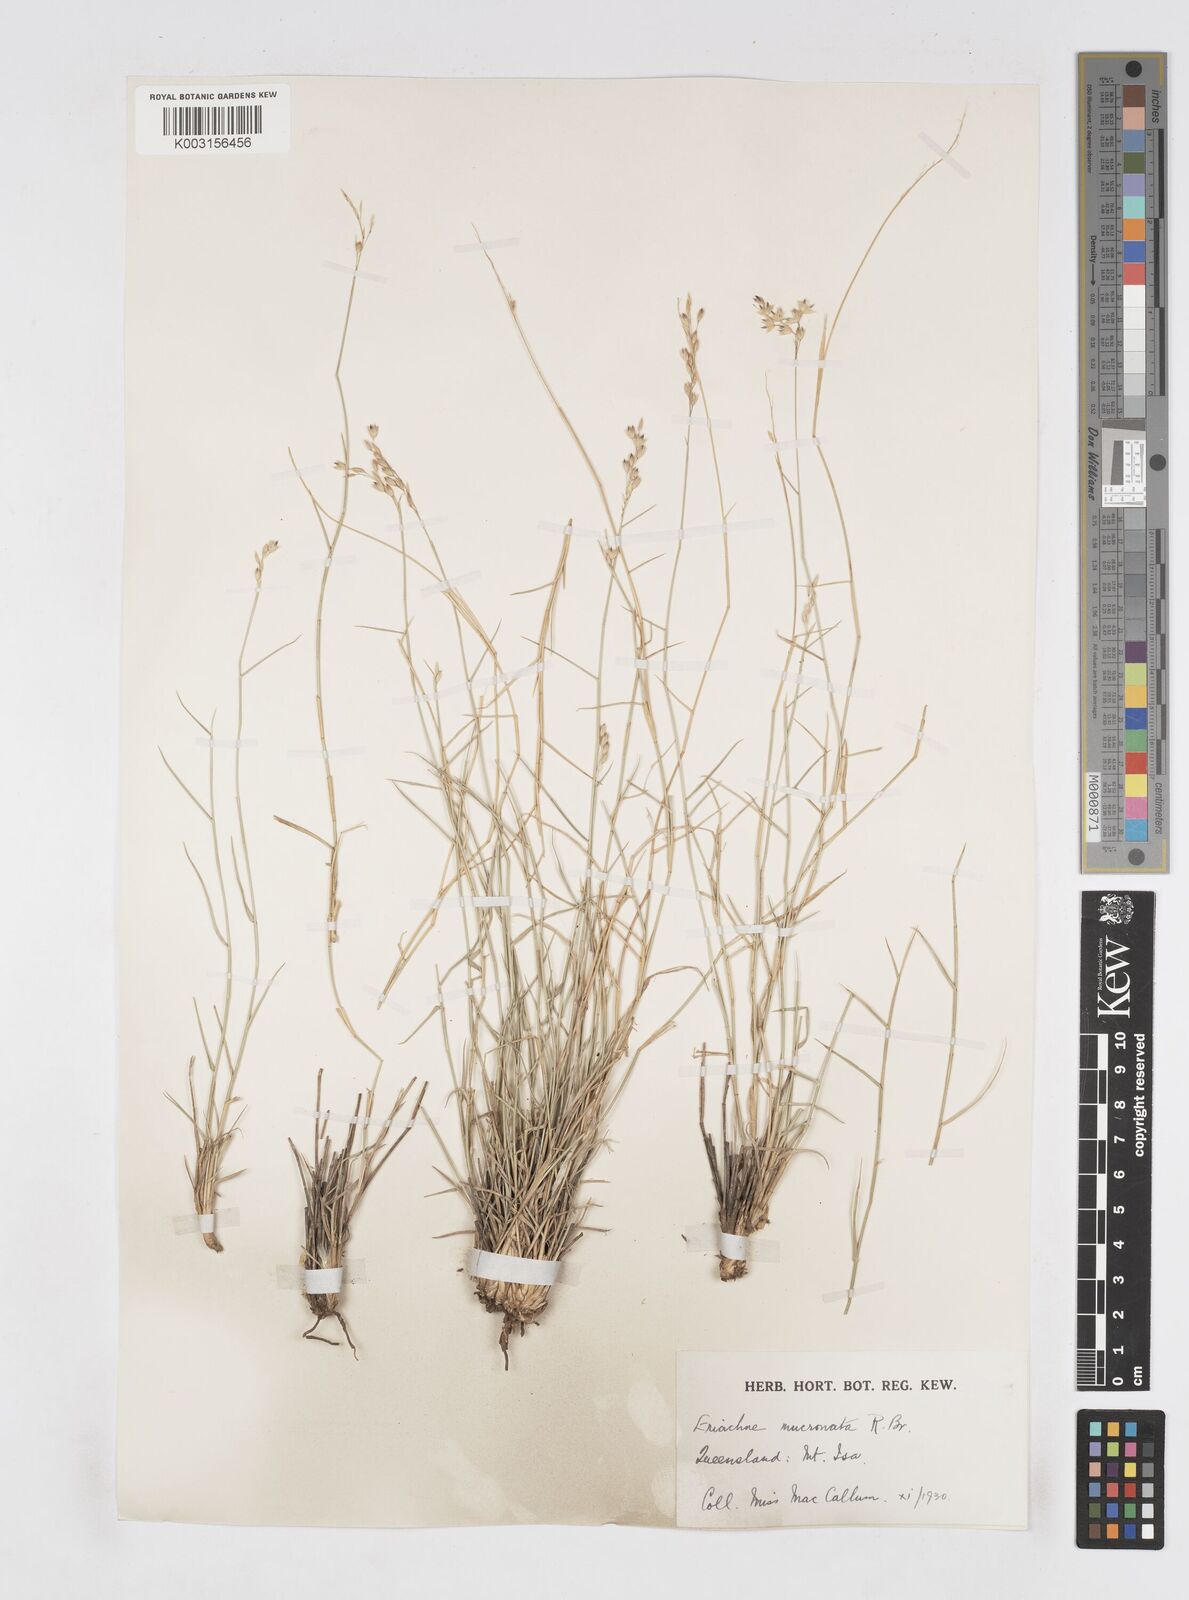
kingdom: Plantae
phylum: Tracheophyta
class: Liliopsida
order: Poales
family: Poaceae
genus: Eriachne
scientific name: Eriachne mucronata
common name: Mountain wanderrie grass
